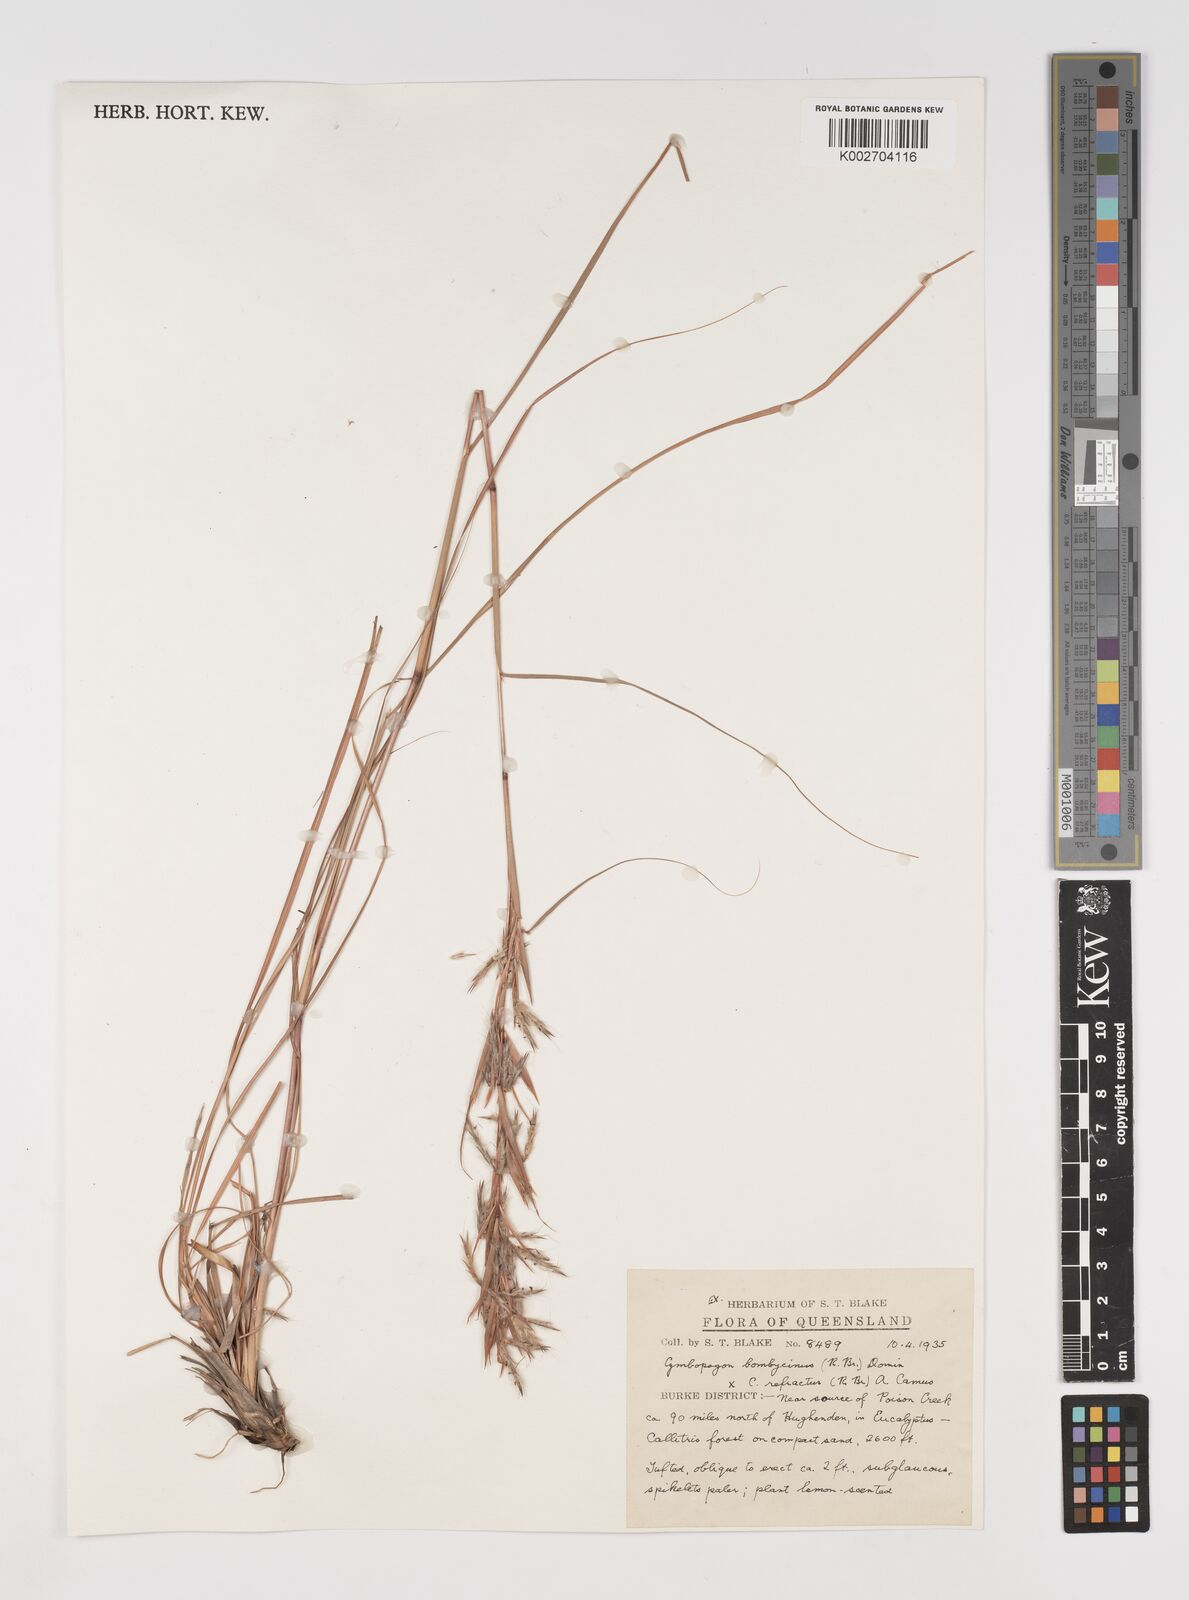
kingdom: Plantae
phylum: Tracheophyta
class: Liliopsida
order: Poales
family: Poaceae
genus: Cymbopogon
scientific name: Cymbopogon
